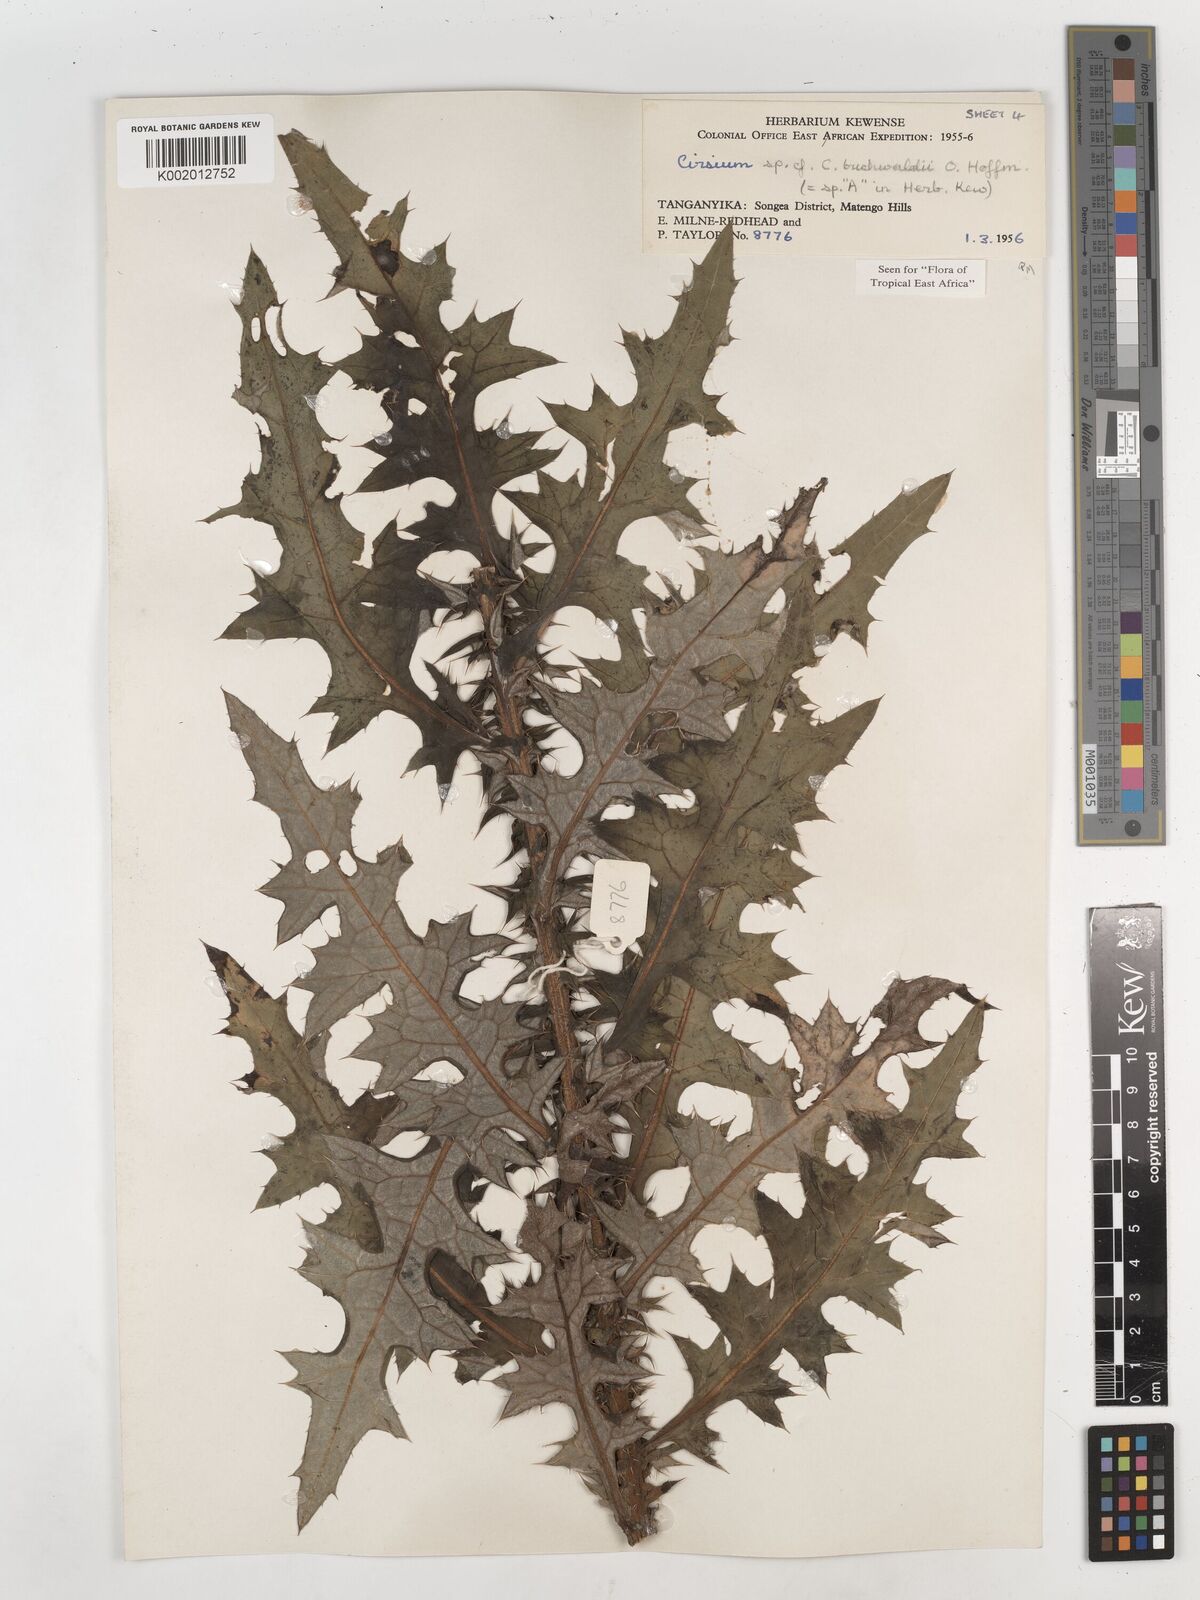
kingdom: Plantae
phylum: Tracheophyta
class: Magnoliopsida
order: Asterales
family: Asteraceae
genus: Cirsium
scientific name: Cirsium buchwaldii
